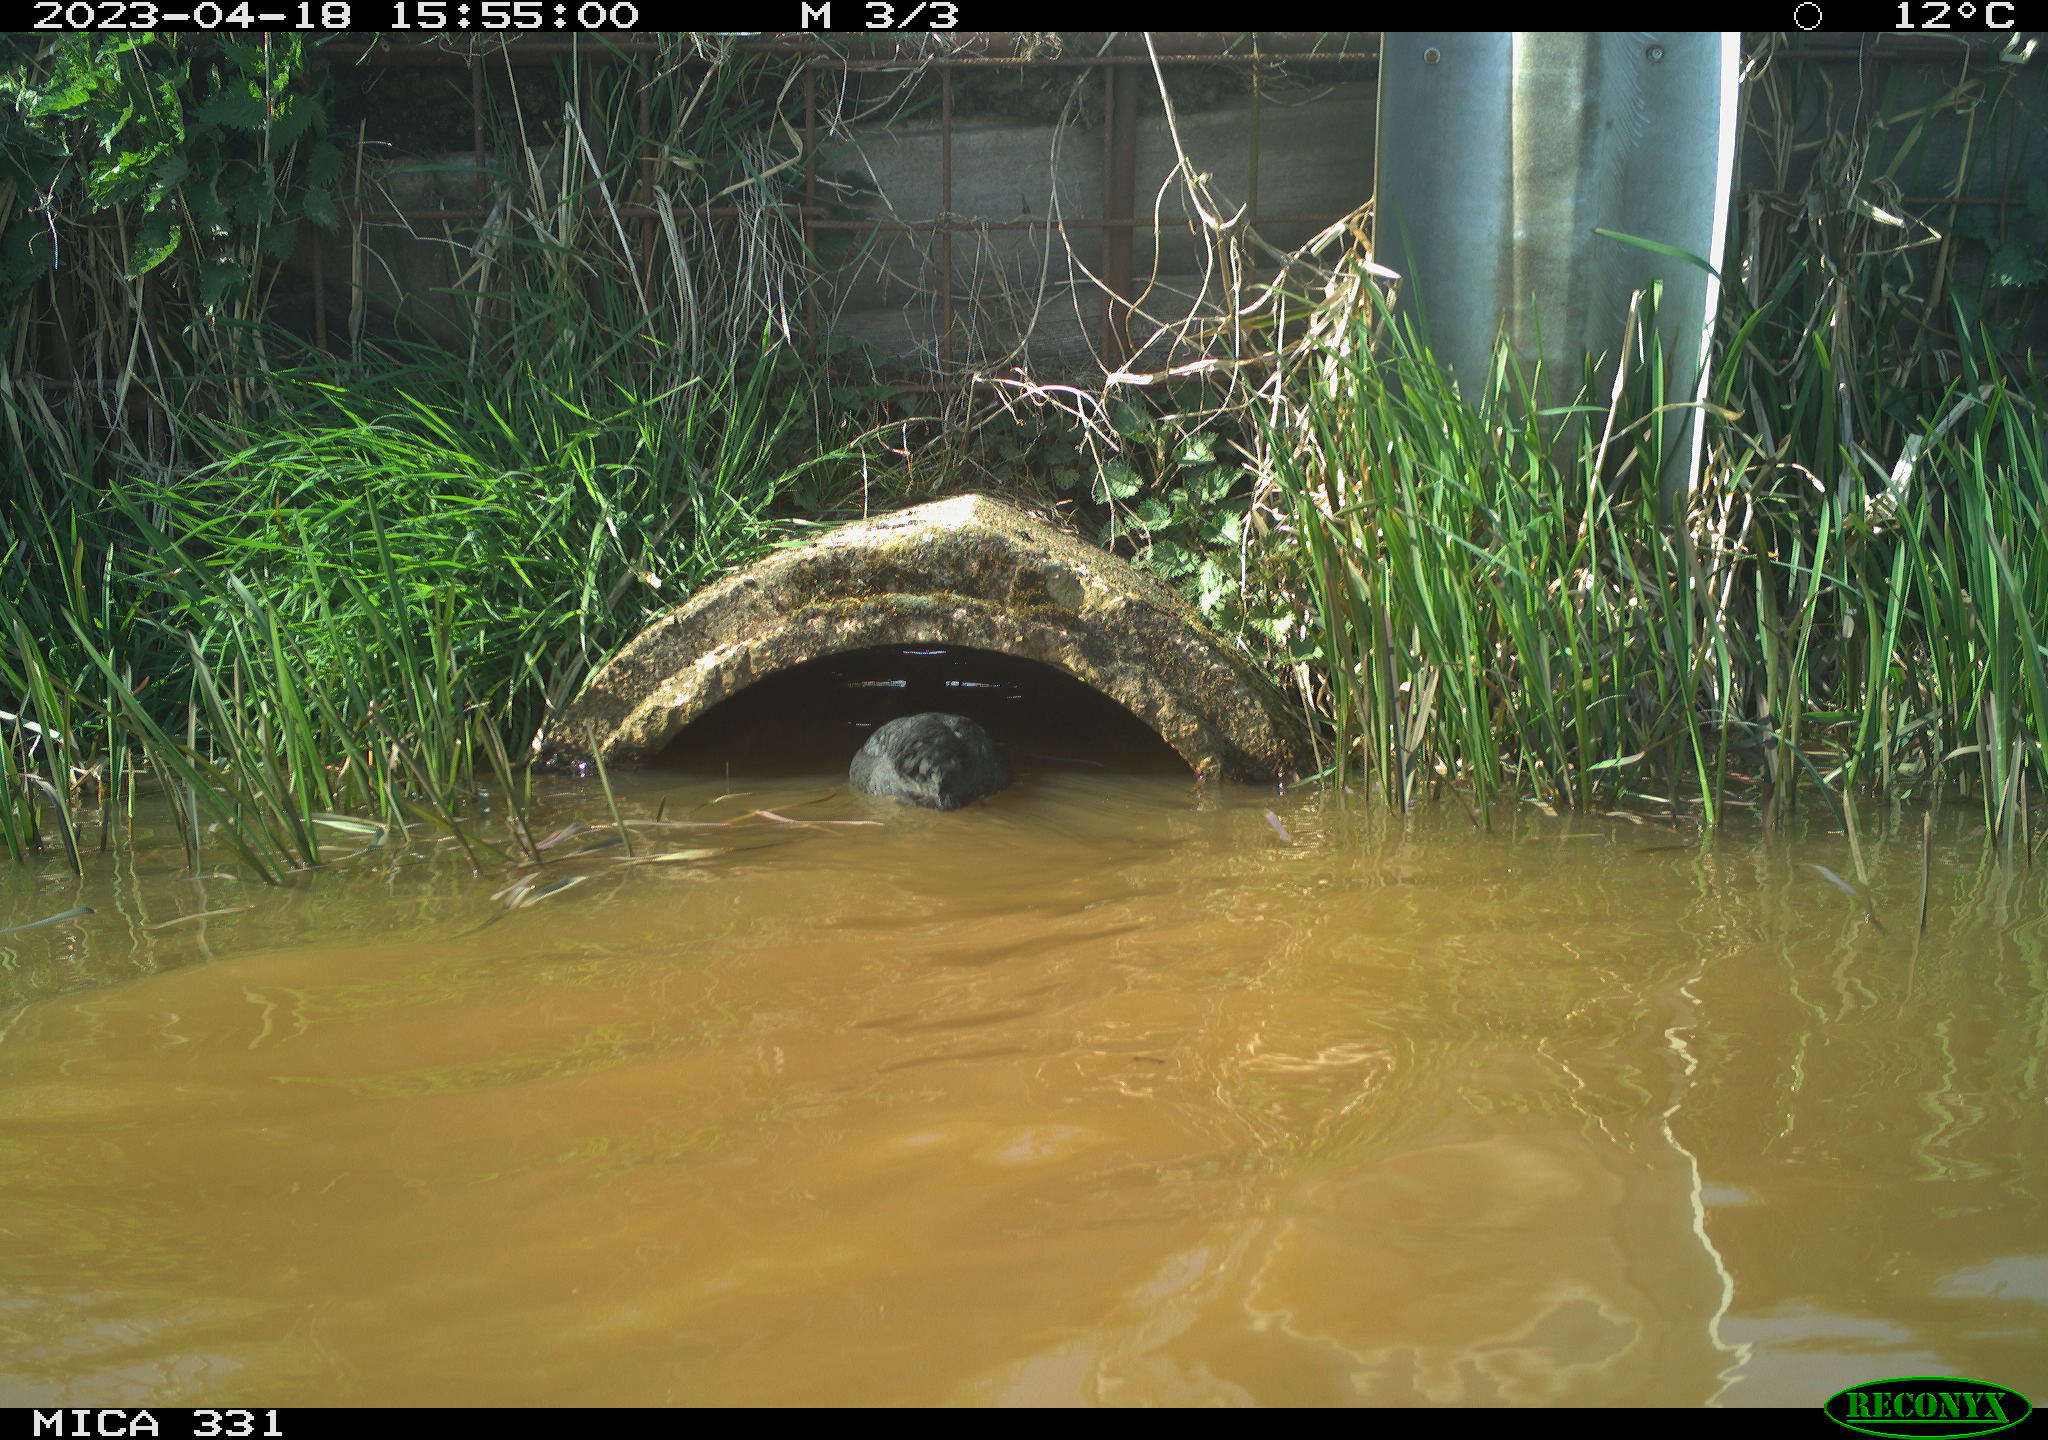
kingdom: Animalia
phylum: Chordata
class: Aves
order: Gruiformes
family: Rallidae
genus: Fulica
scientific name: Fulica atra
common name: Eurasian coot
